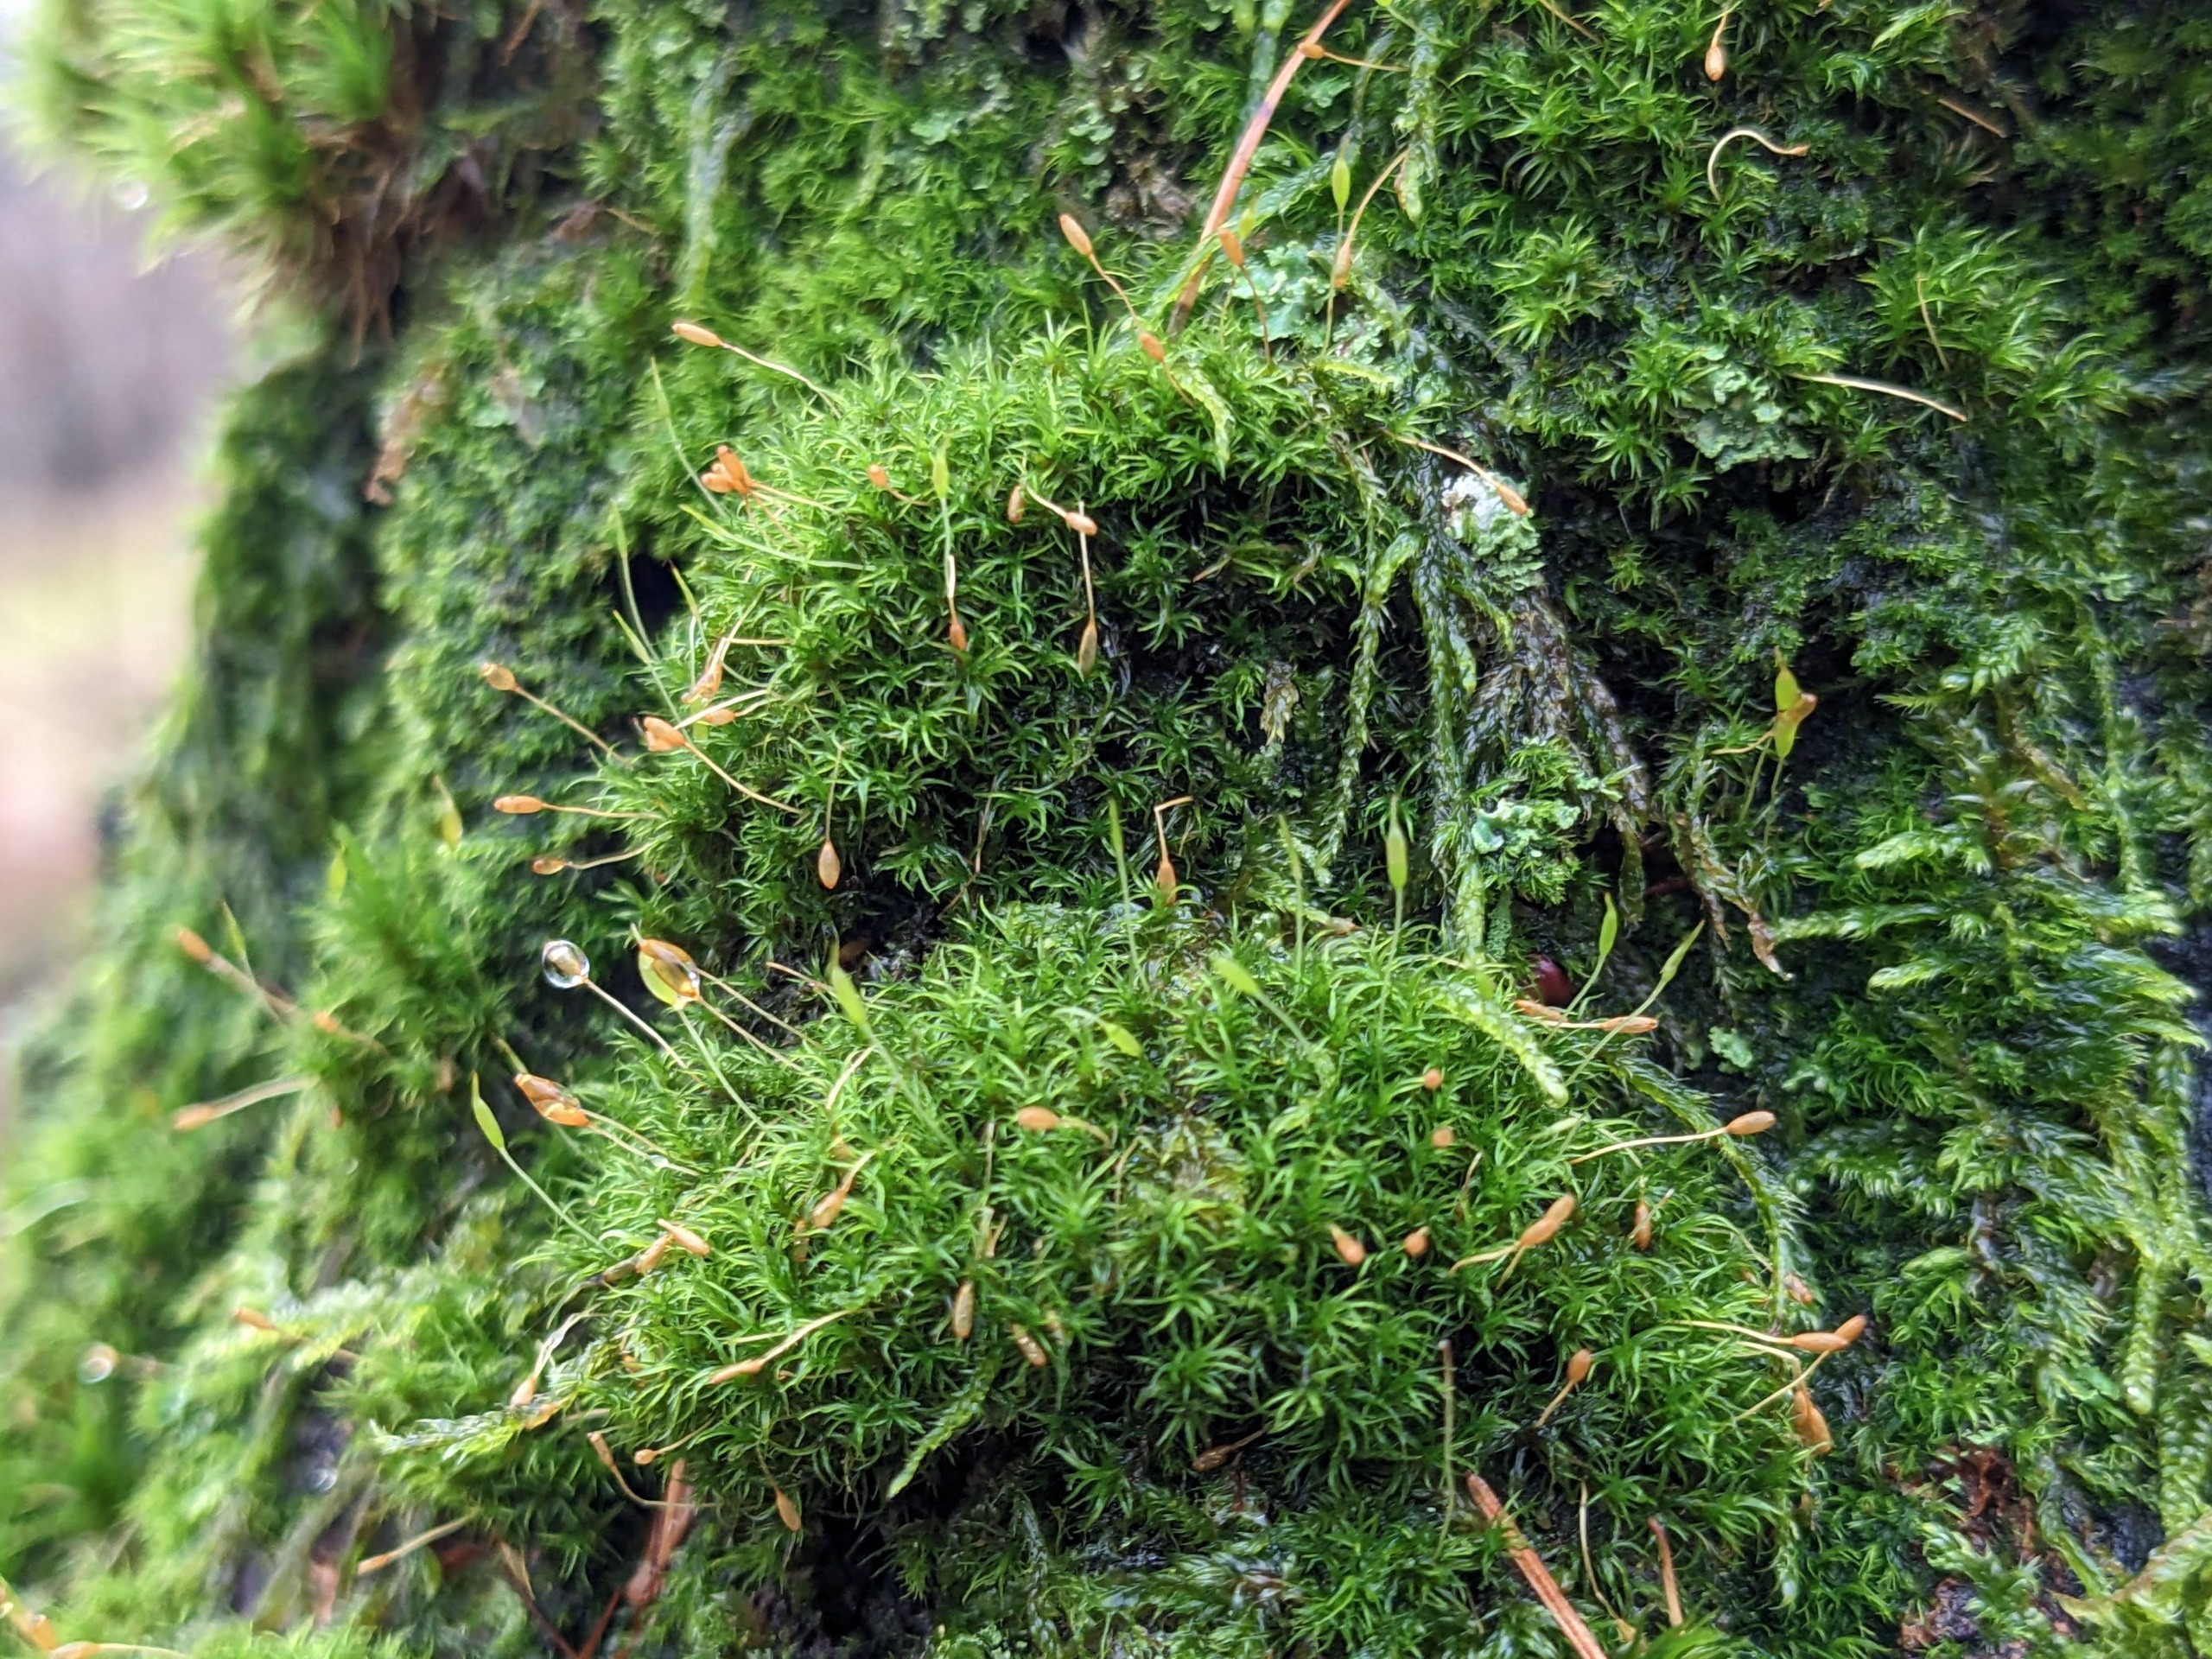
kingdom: Plantae
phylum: Bryophyta
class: Bryopsida
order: Dicranales
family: Rhabdoweisiaceae
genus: Dicranoweisia
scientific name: Dicranoweisia cirrata
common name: Almindelig krøltuemos
